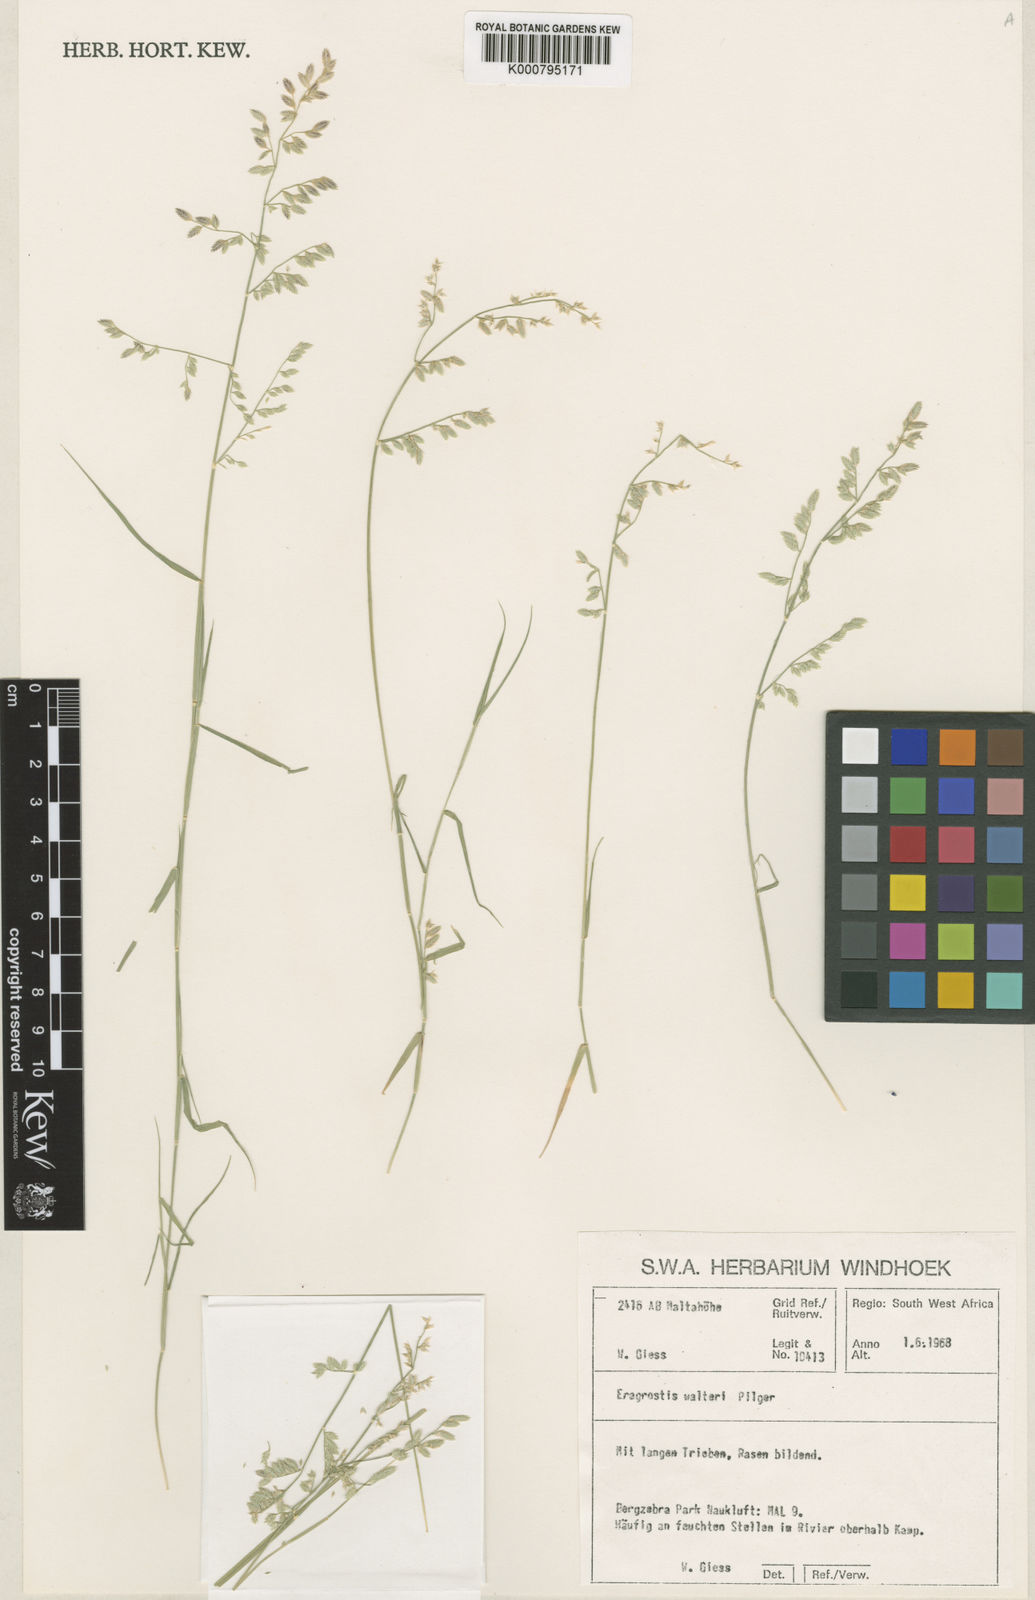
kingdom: Plantae
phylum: Tracheophyta
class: Liliopsida
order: Poales
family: Poaceae
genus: Pratochloa
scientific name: Pratochloa walteri
